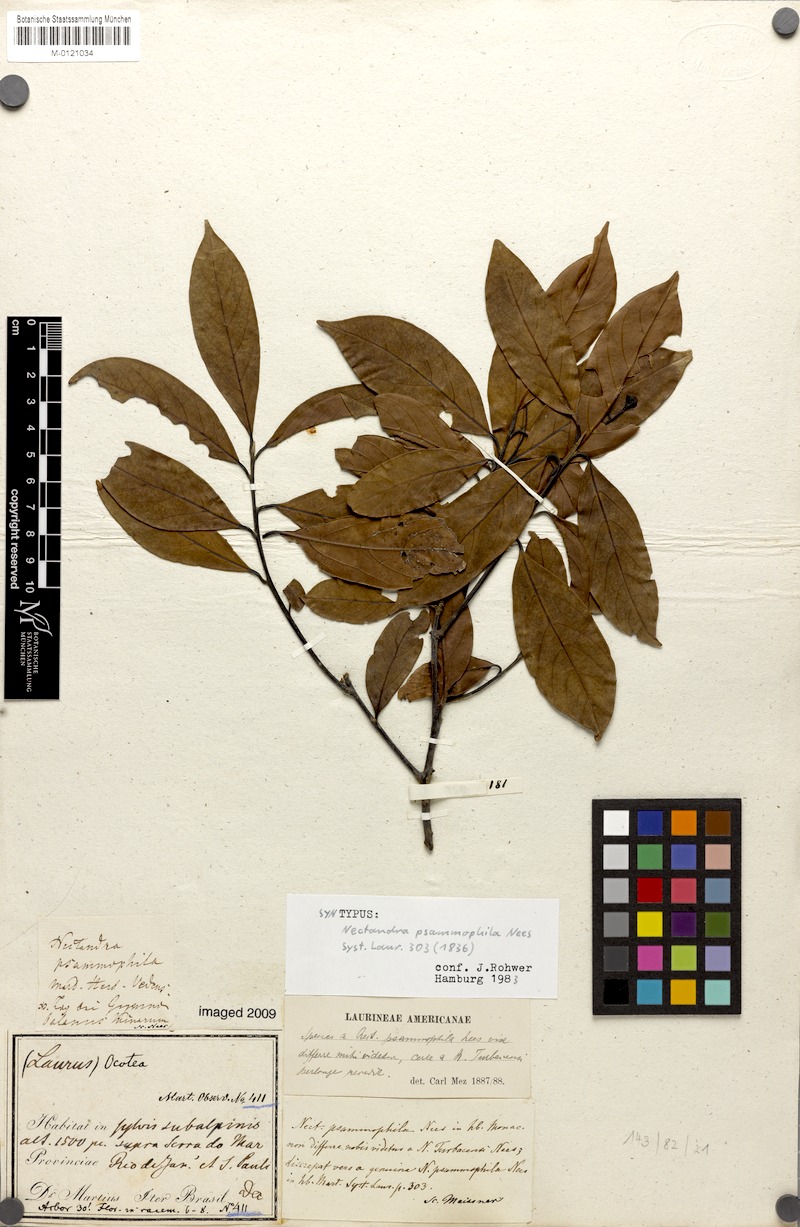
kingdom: Plantae
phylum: Tracheophyta
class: Magnoliopsida
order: Laurales
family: Lauraceae
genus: Nectandra
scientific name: Nectandra psammophila
